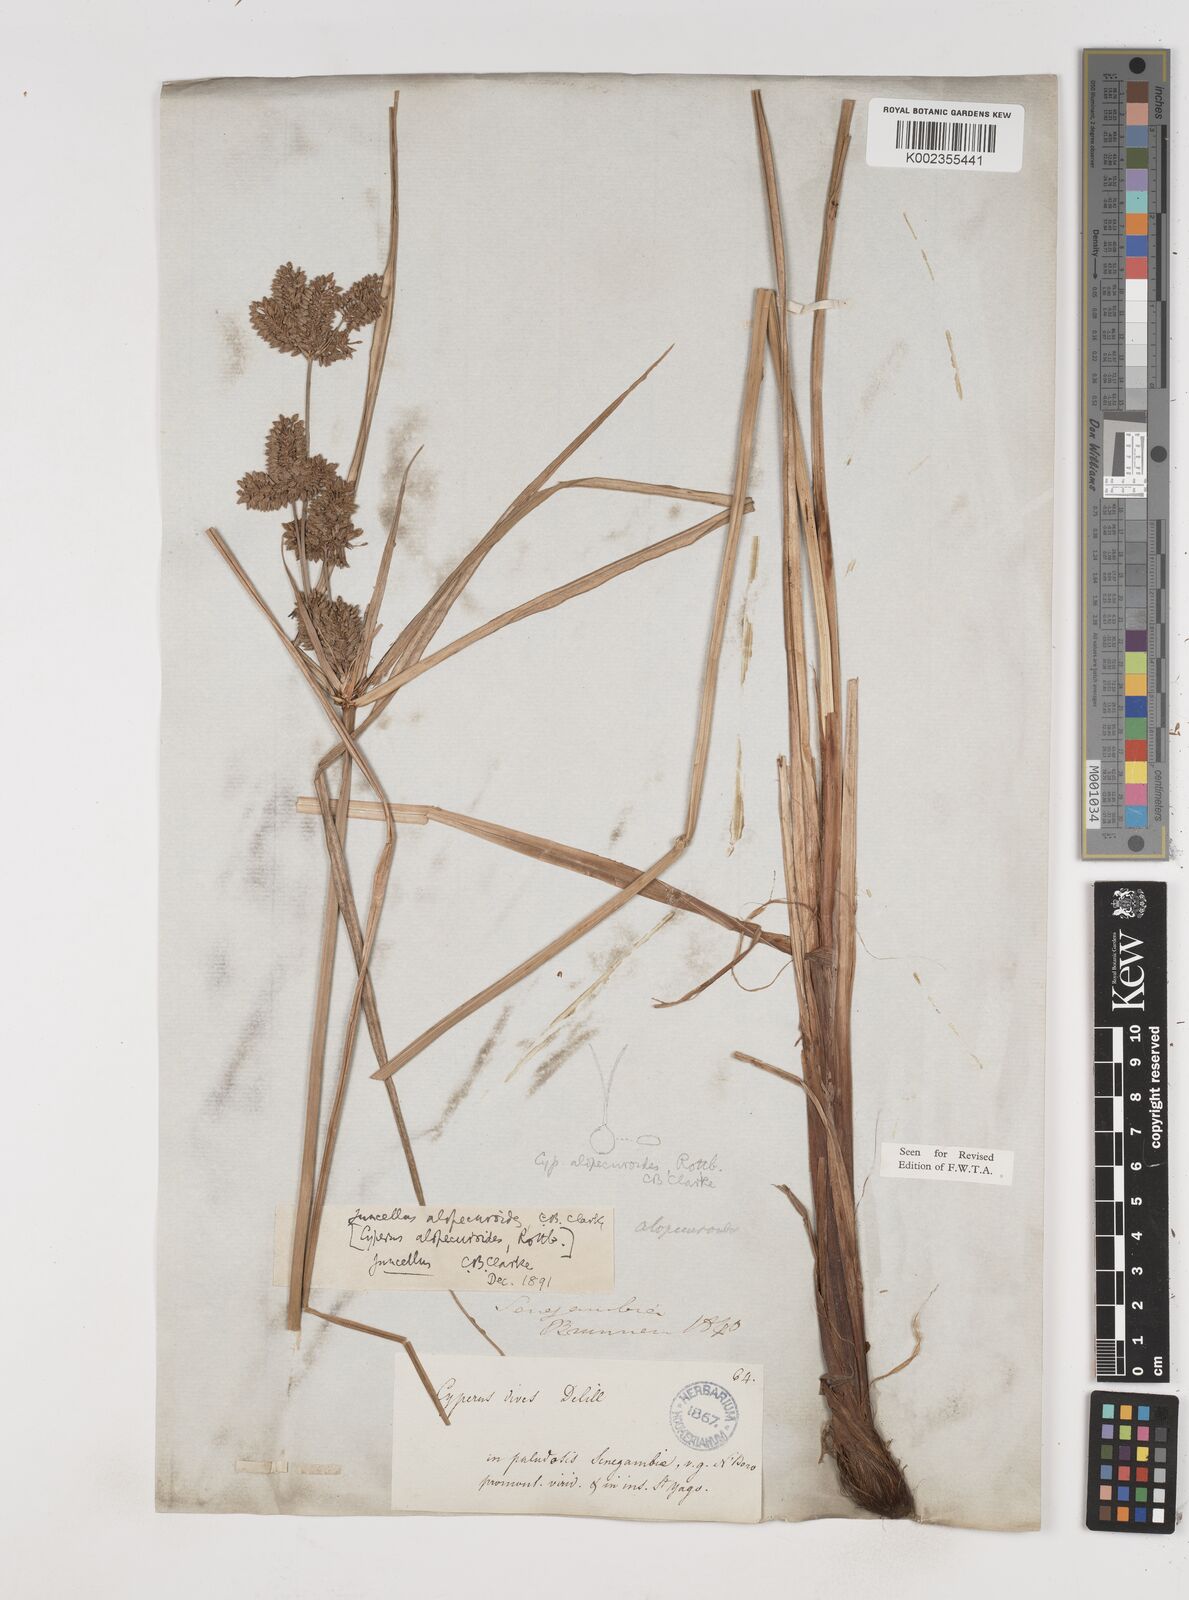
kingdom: Plantae
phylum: Tracheophyta
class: Liliopsida
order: Poales
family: Cyperaceae
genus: Cyperus
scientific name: Cyperus alopecuroides
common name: Foxtail flatsedge
